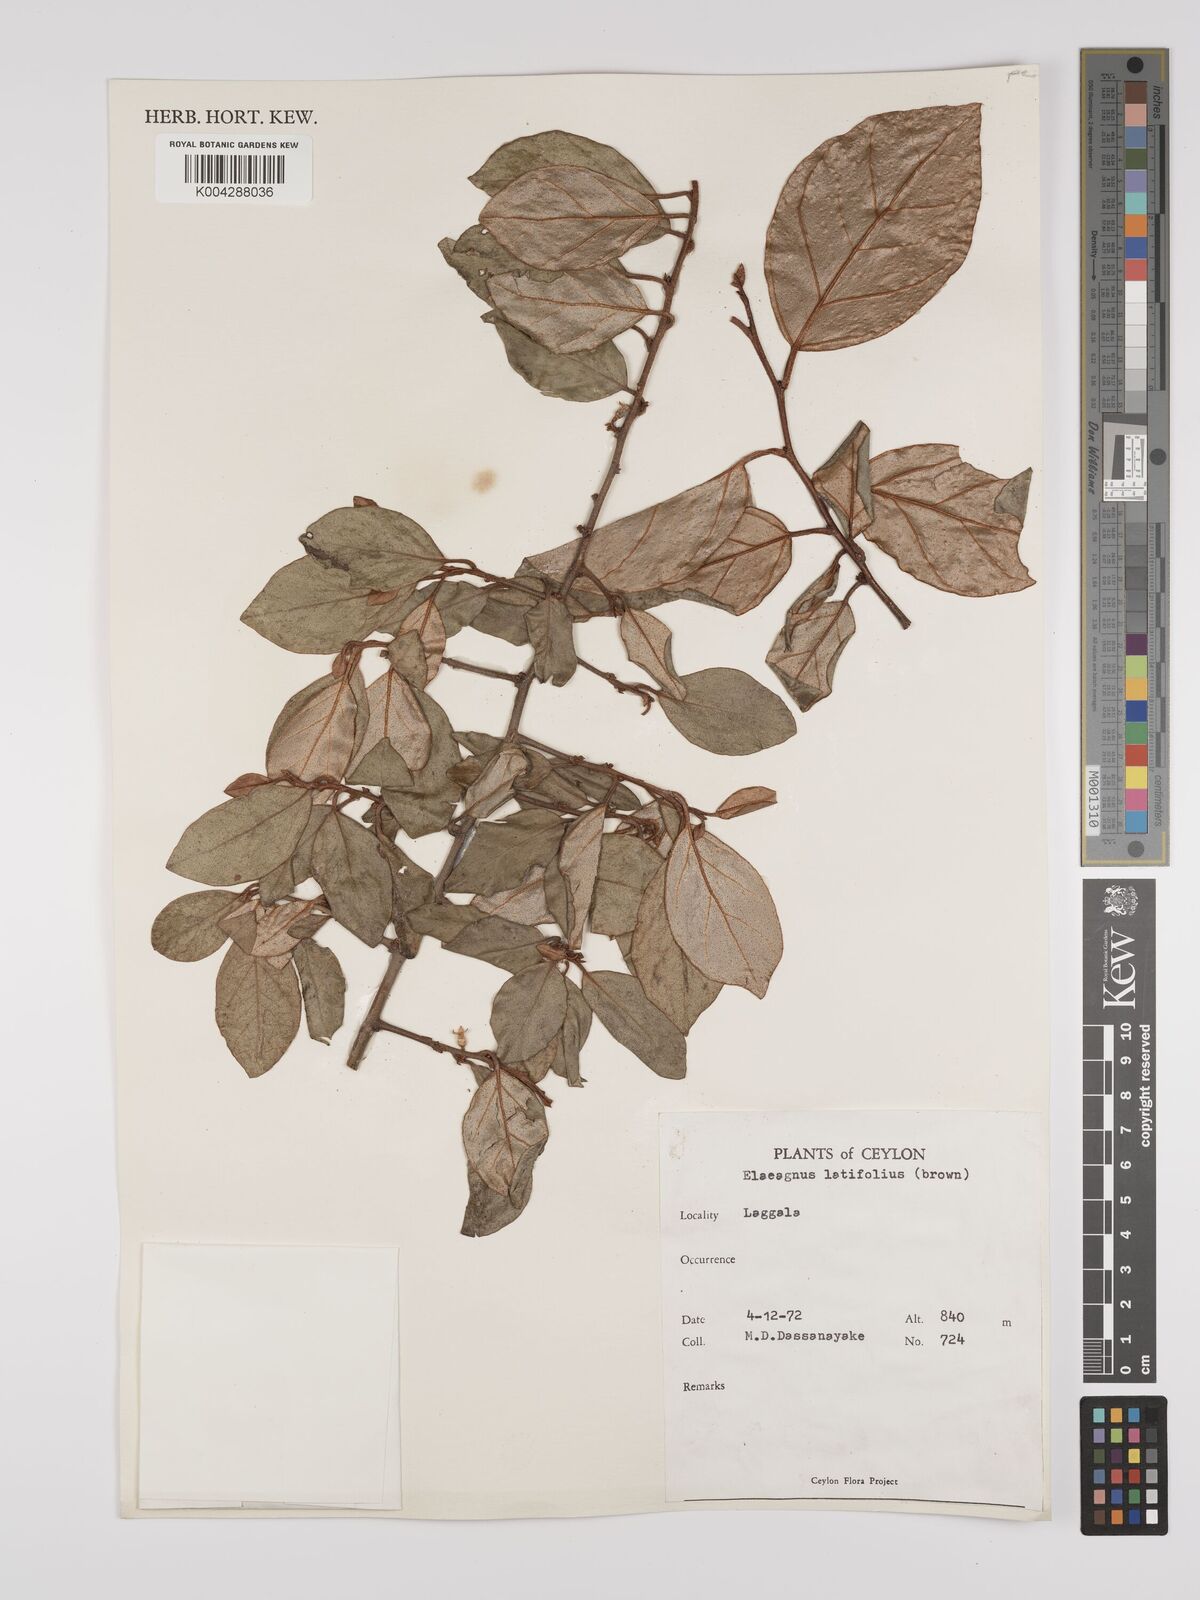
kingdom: Plantae
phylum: Tracheophyta
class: Magnoliopsida
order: Rosales
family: Elaeagnaceae
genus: Elaeagnus
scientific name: Elaeagnus latifolia
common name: Oleaster
